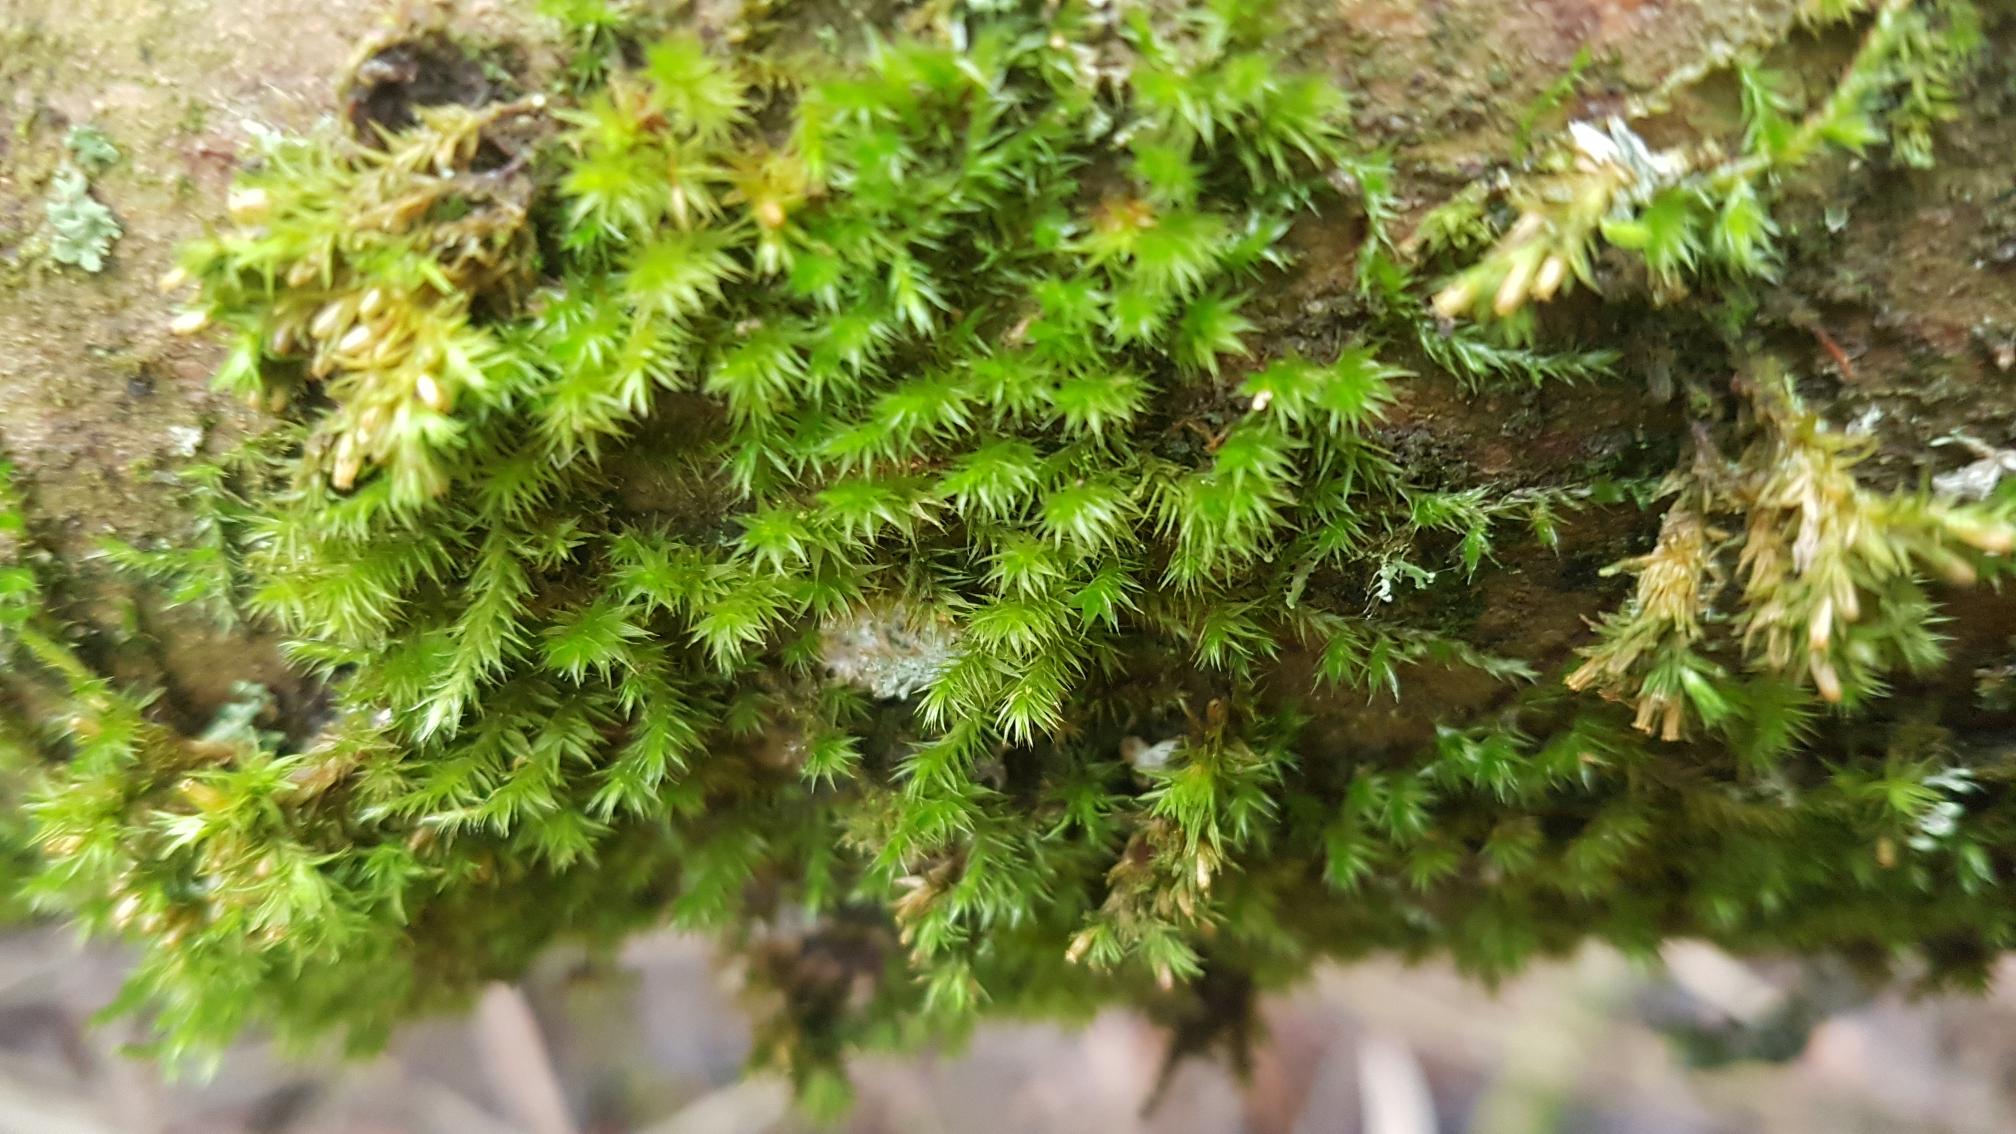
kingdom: Plantae
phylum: Bryophyta
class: Bryopsida
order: Hypnales
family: Leucodontaceae
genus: Leucodon
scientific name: Leucodon sciuroides
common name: Egernhale-buemos
